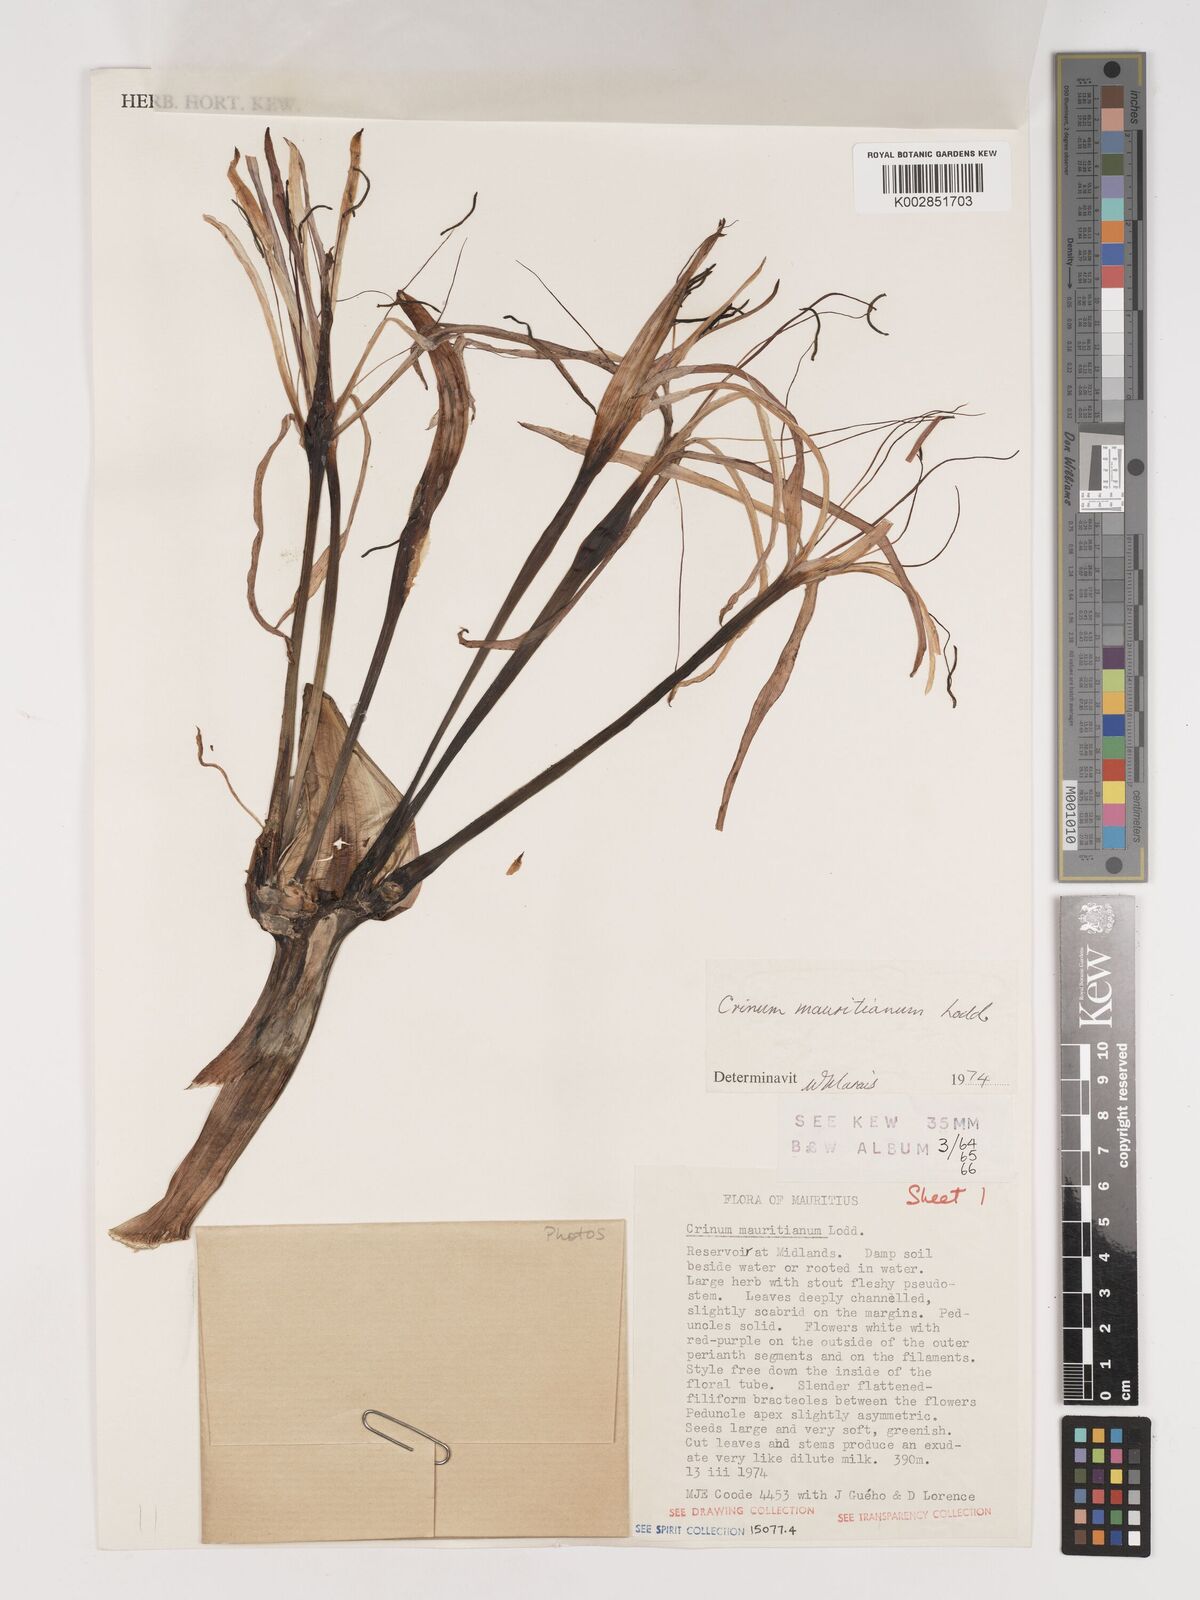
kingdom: Plantae
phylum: Tracheophyta
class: Liliopsida
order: Asparagales
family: Amaryllidaceae
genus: Crinum
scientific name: Crinum mauritianum
